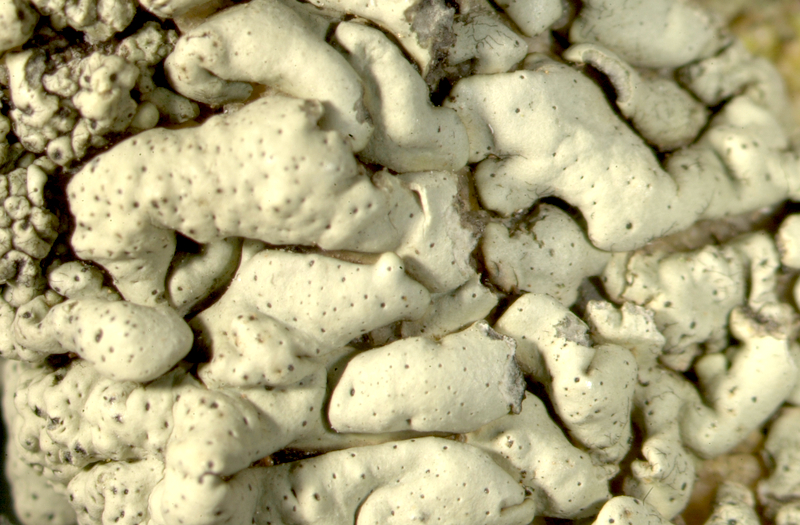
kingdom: Fungi
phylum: Ascomycota
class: Lecanoromycetes
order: Lecanorales
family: Parmeliaceae
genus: Xanthoparmelia
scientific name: Xanthoparmelia
